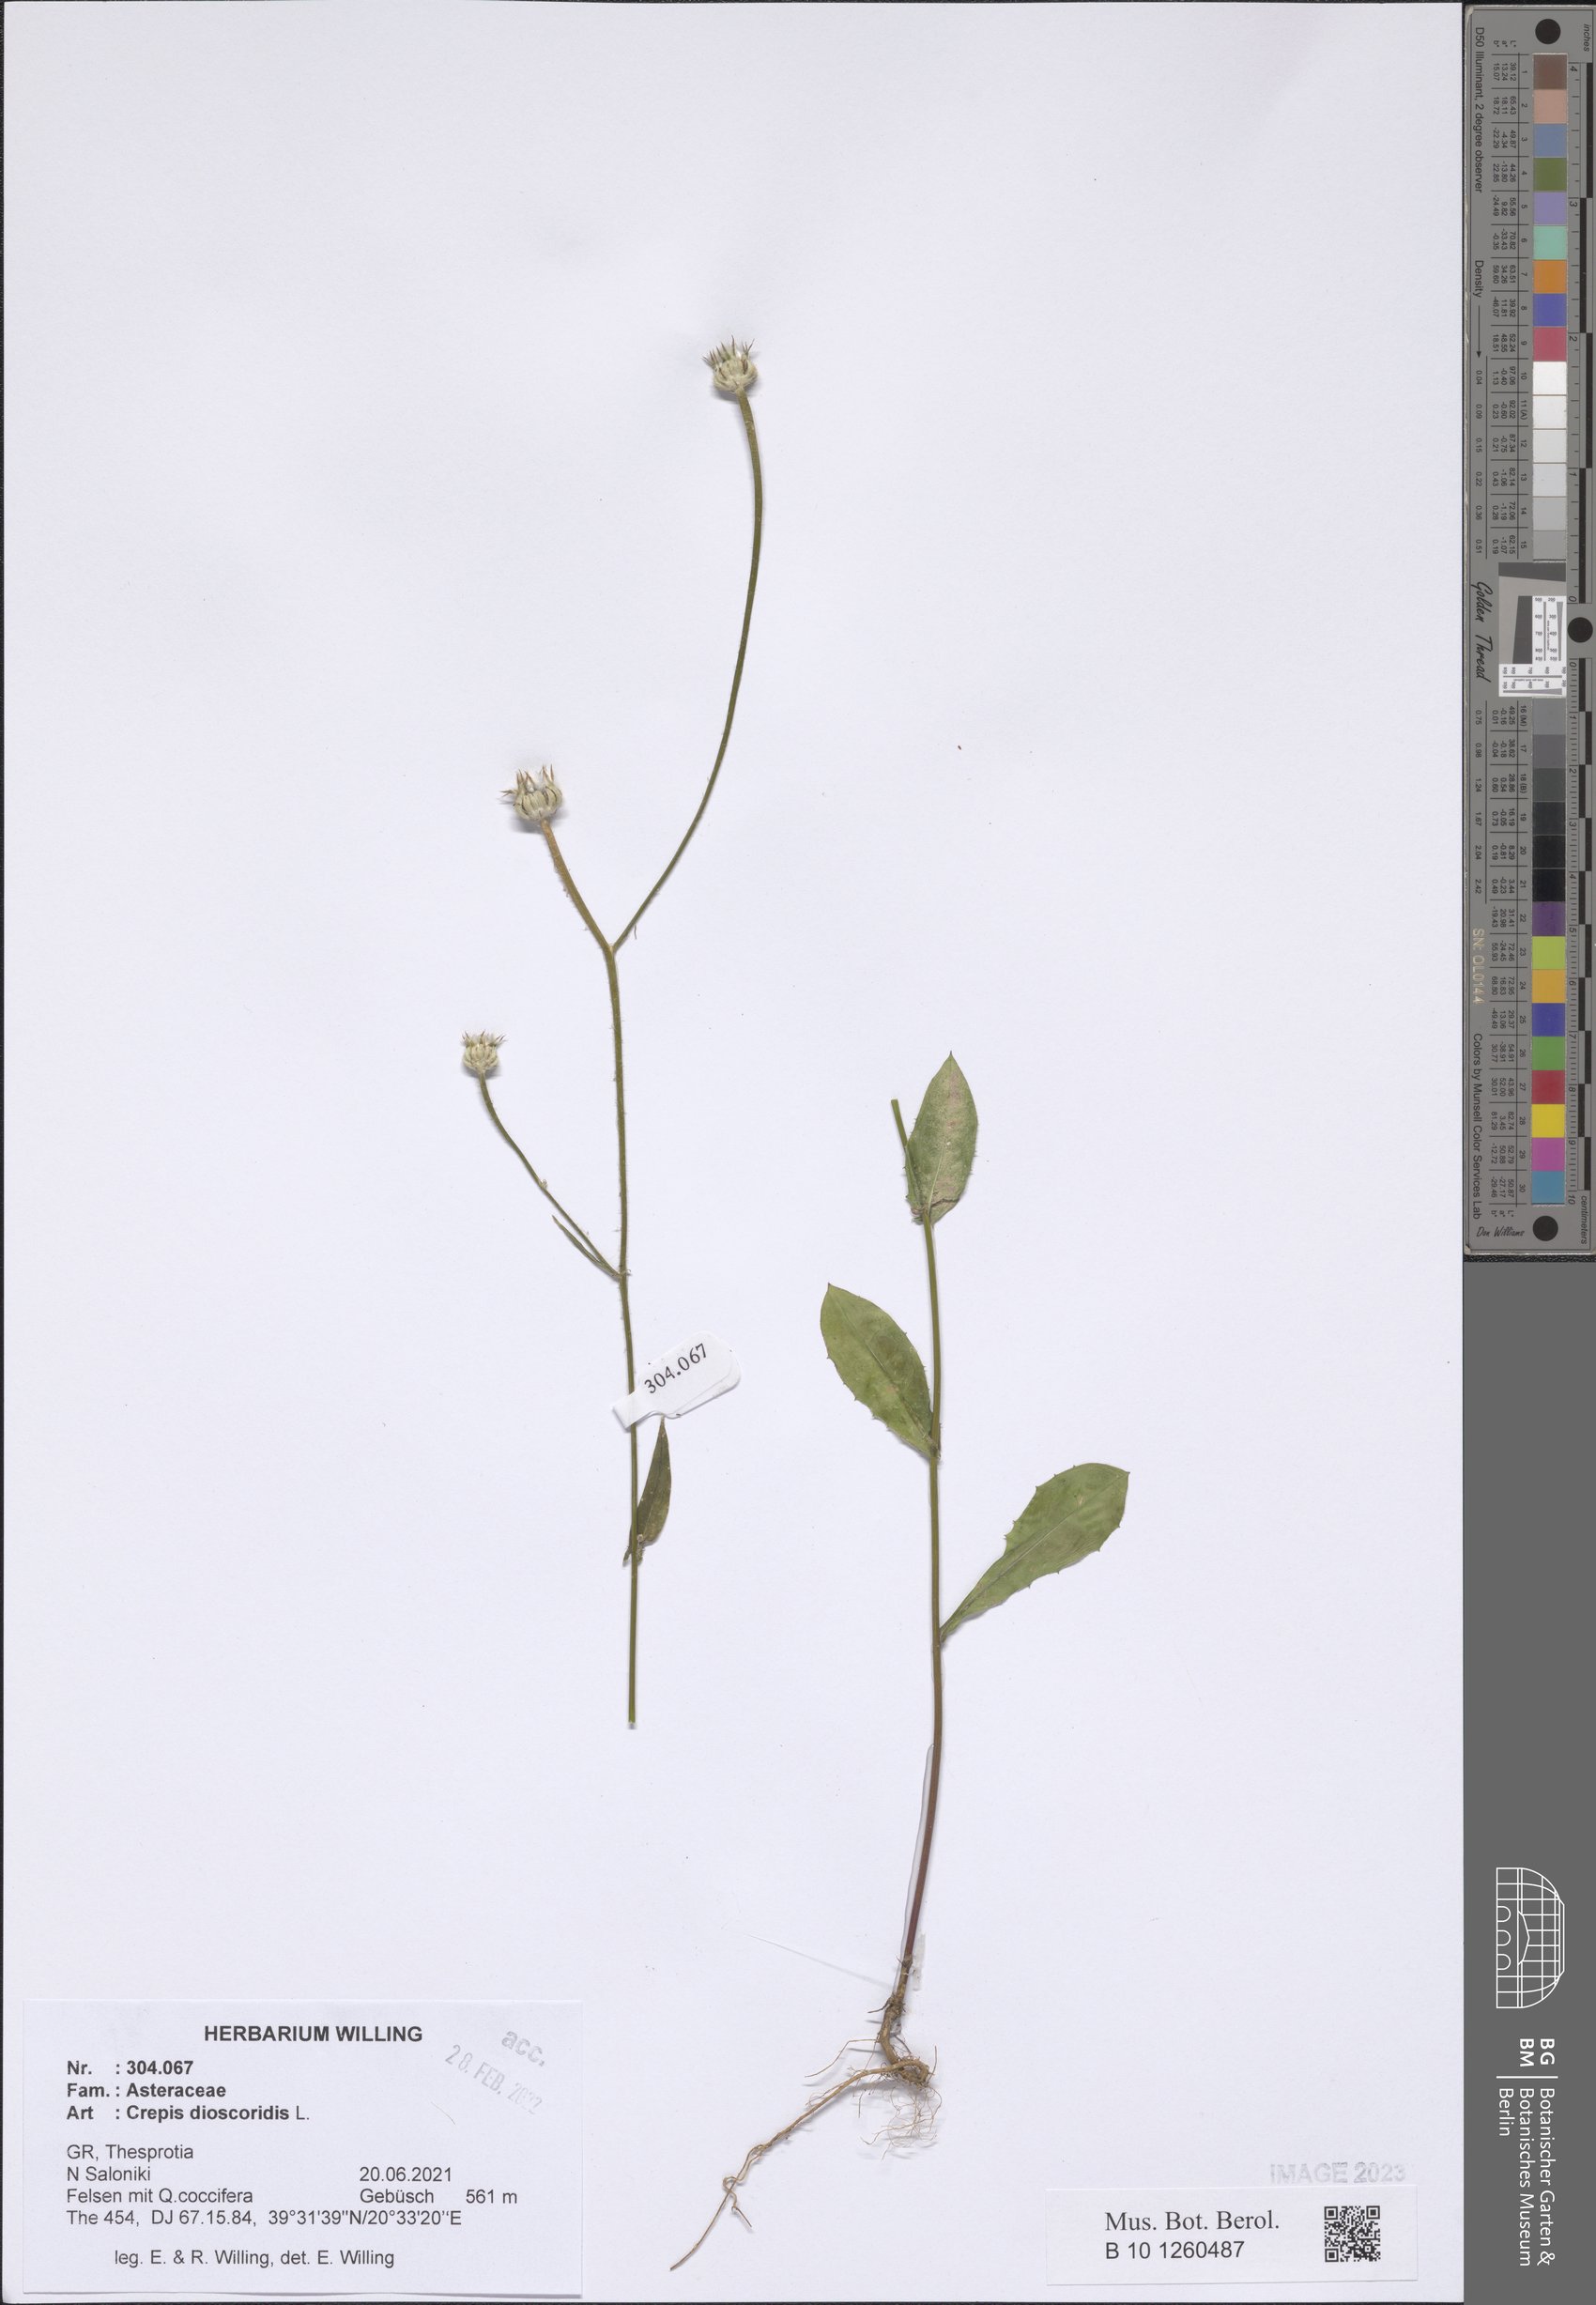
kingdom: Plantae
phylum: Tracheophyta
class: Magnoliopsida
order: Asterales
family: Asteraceae
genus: Crepis
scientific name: Crepis dioscoridis
